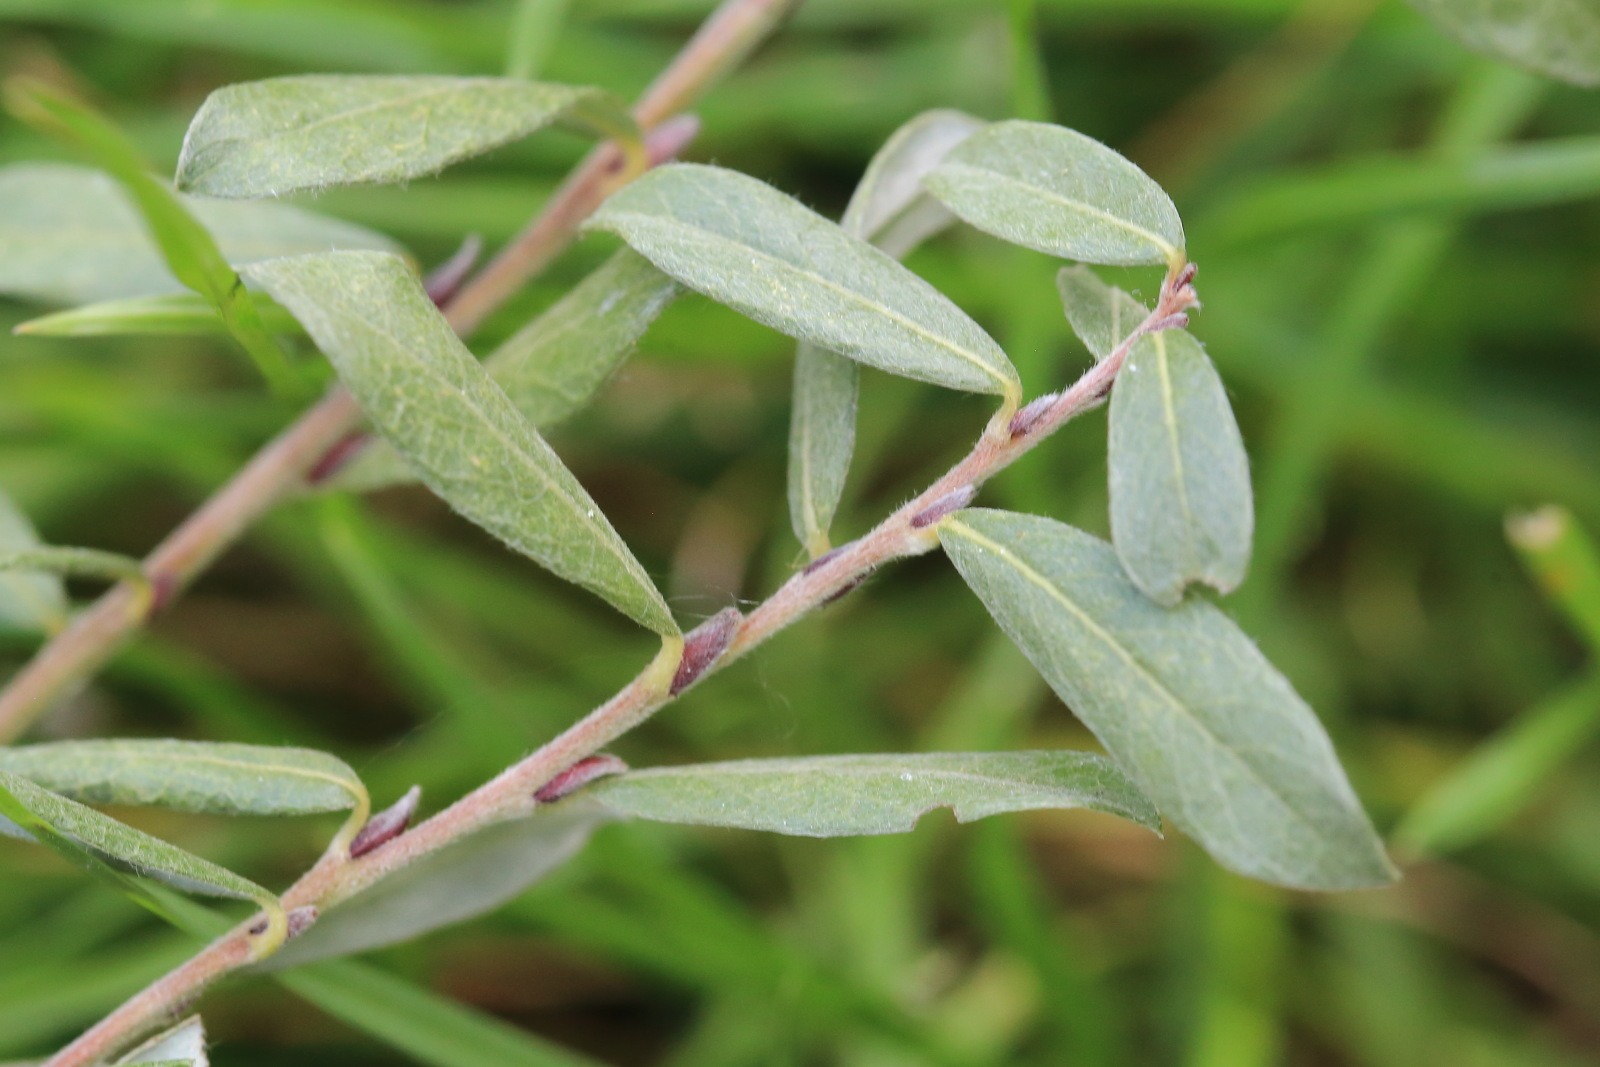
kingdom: Plantae
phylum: Tracheophyta
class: Magnoliopsida
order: Malpighiales
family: Salicaceae
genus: Salix
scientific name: Salix
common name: Pileslægten
